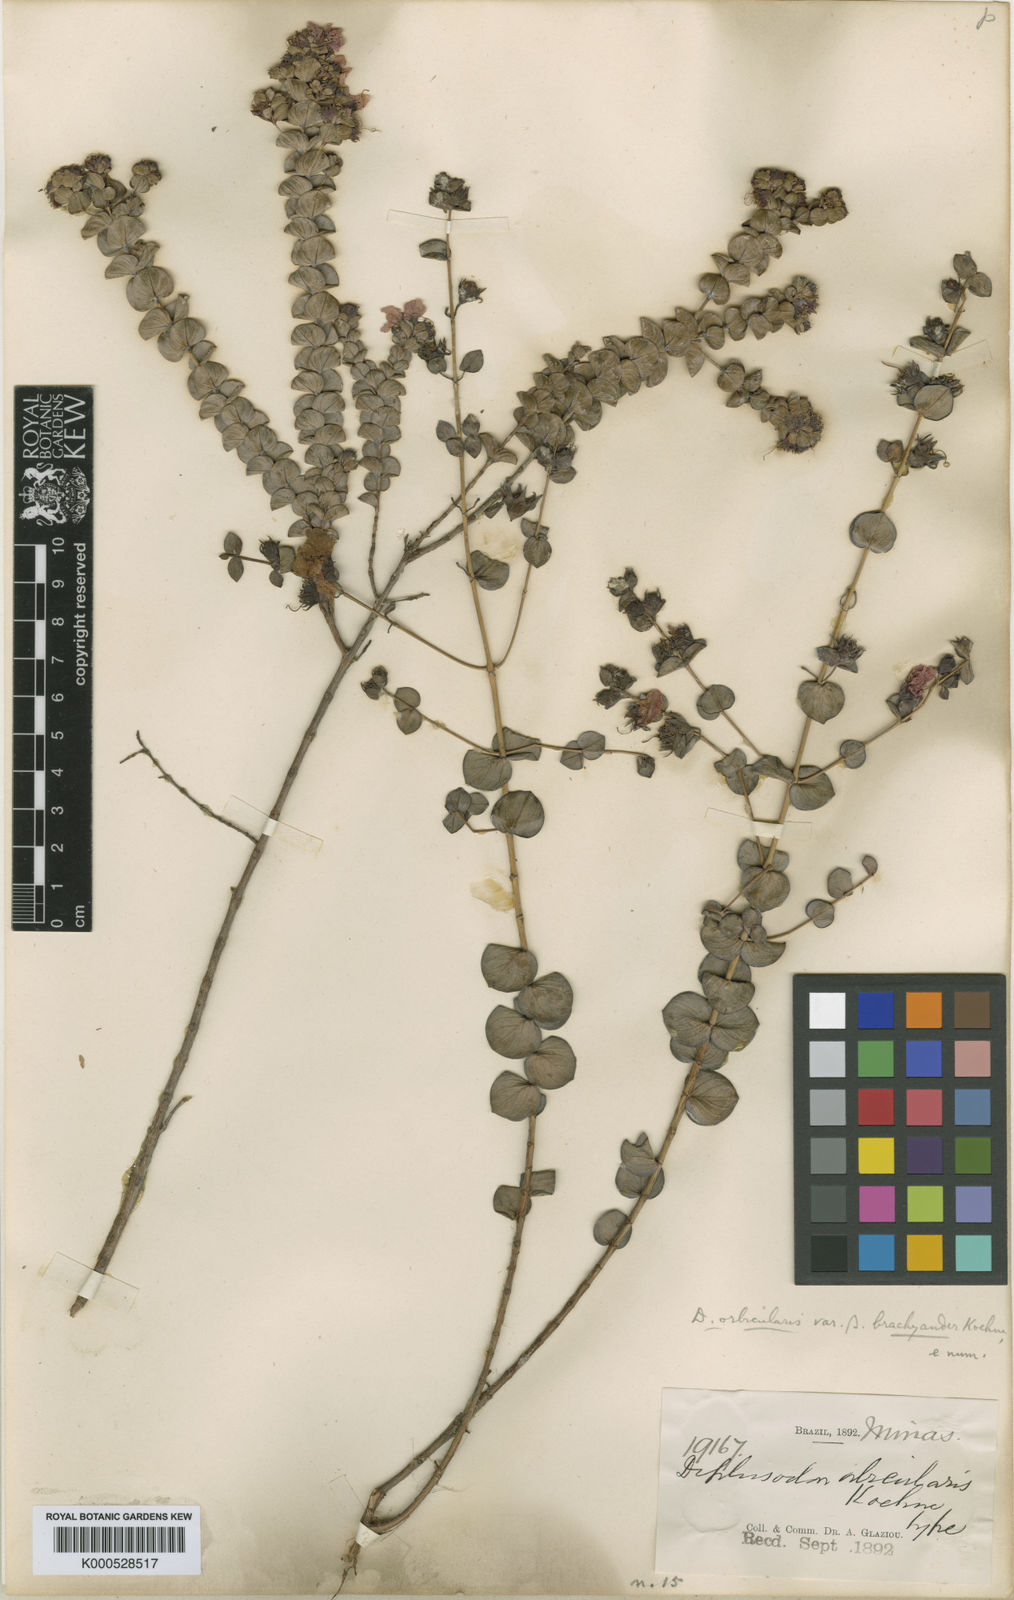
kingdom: Plantae
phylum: Tracheophyta
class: Magnoliopsida
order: Myrtales
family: Lythraceae
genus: Diplusodon
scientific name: Diplusodon orbicularis
